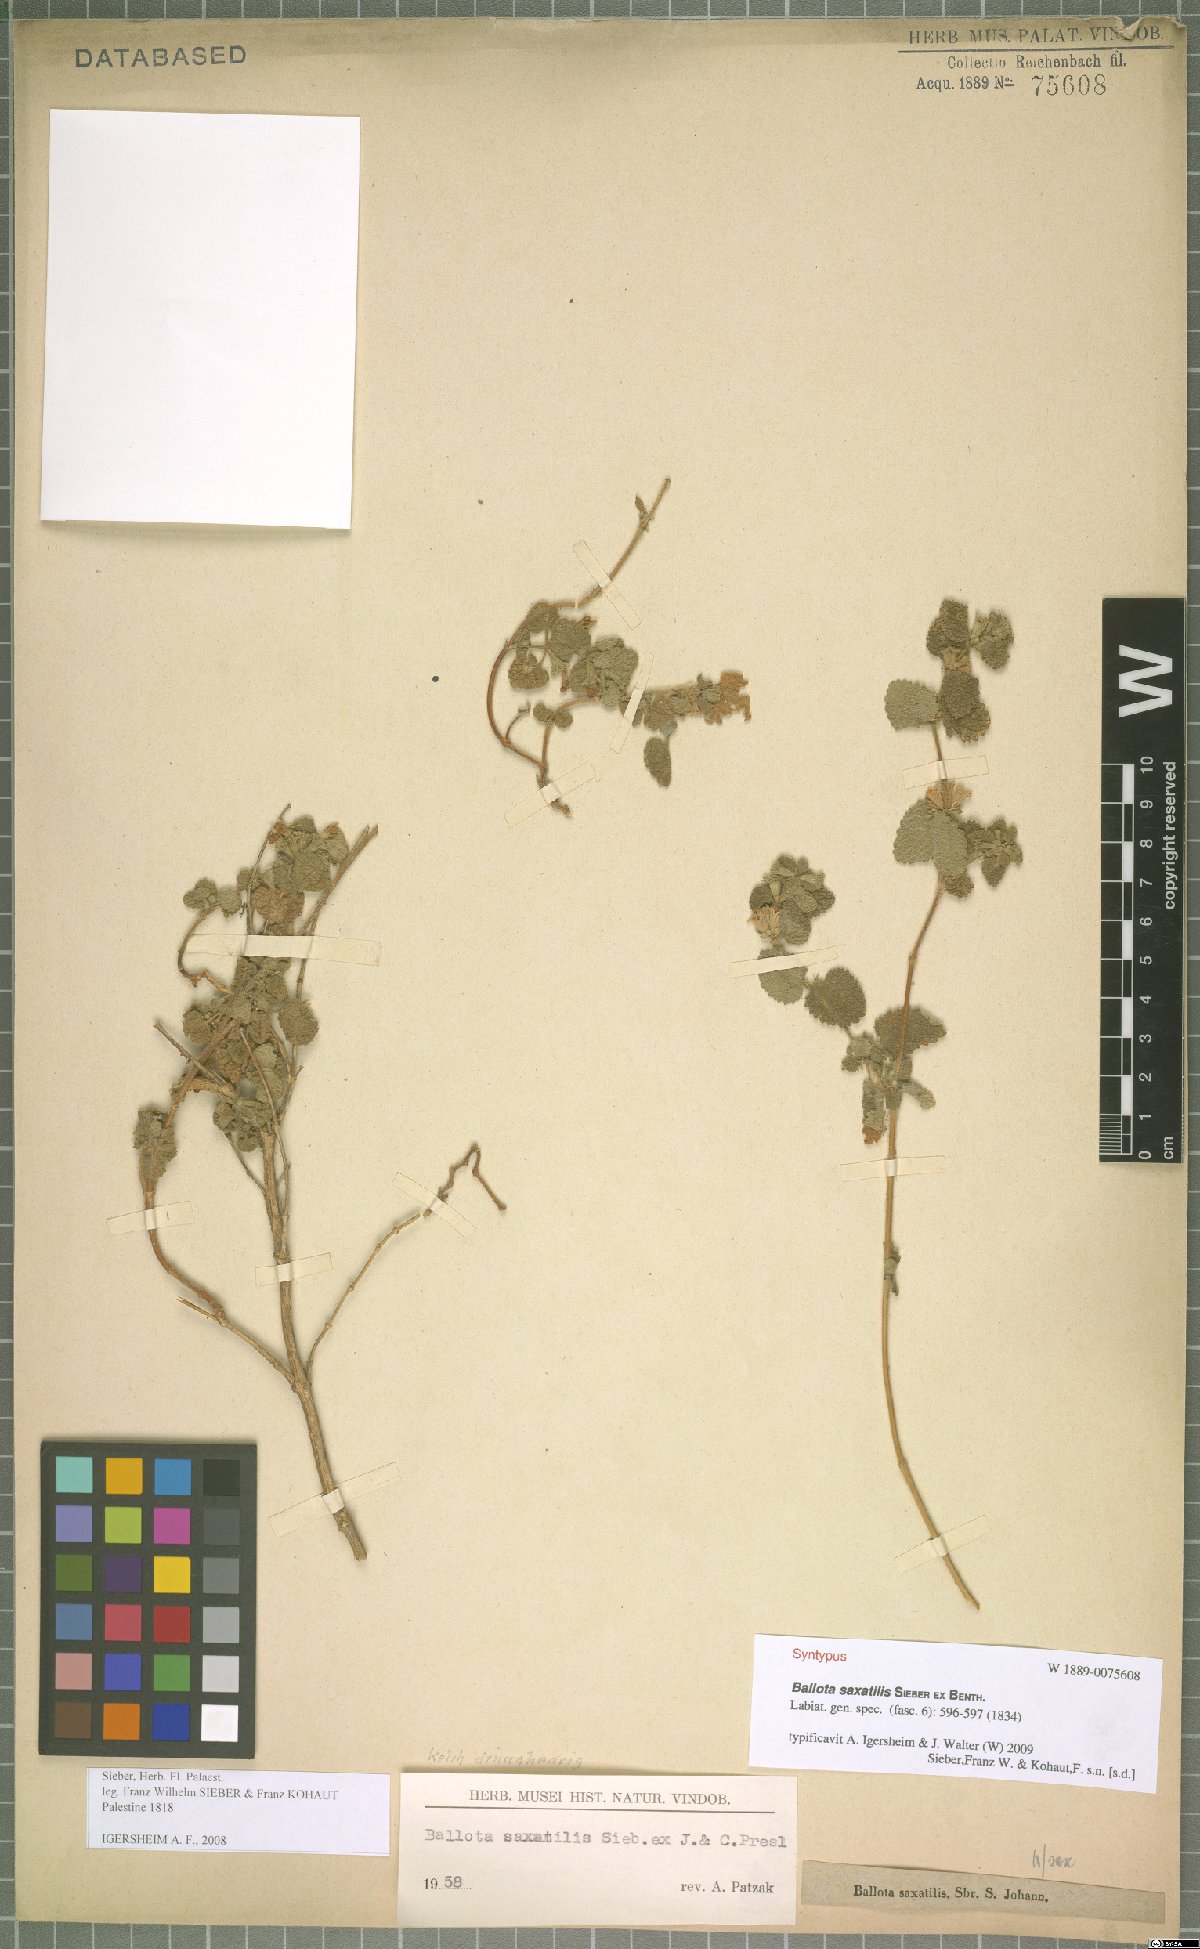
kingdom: Plantae
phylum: Tracheophyta
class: Magnoliopsida
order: Lamiales
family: Lamiaceae
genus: Ballota
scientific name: Ballota saxatilis
